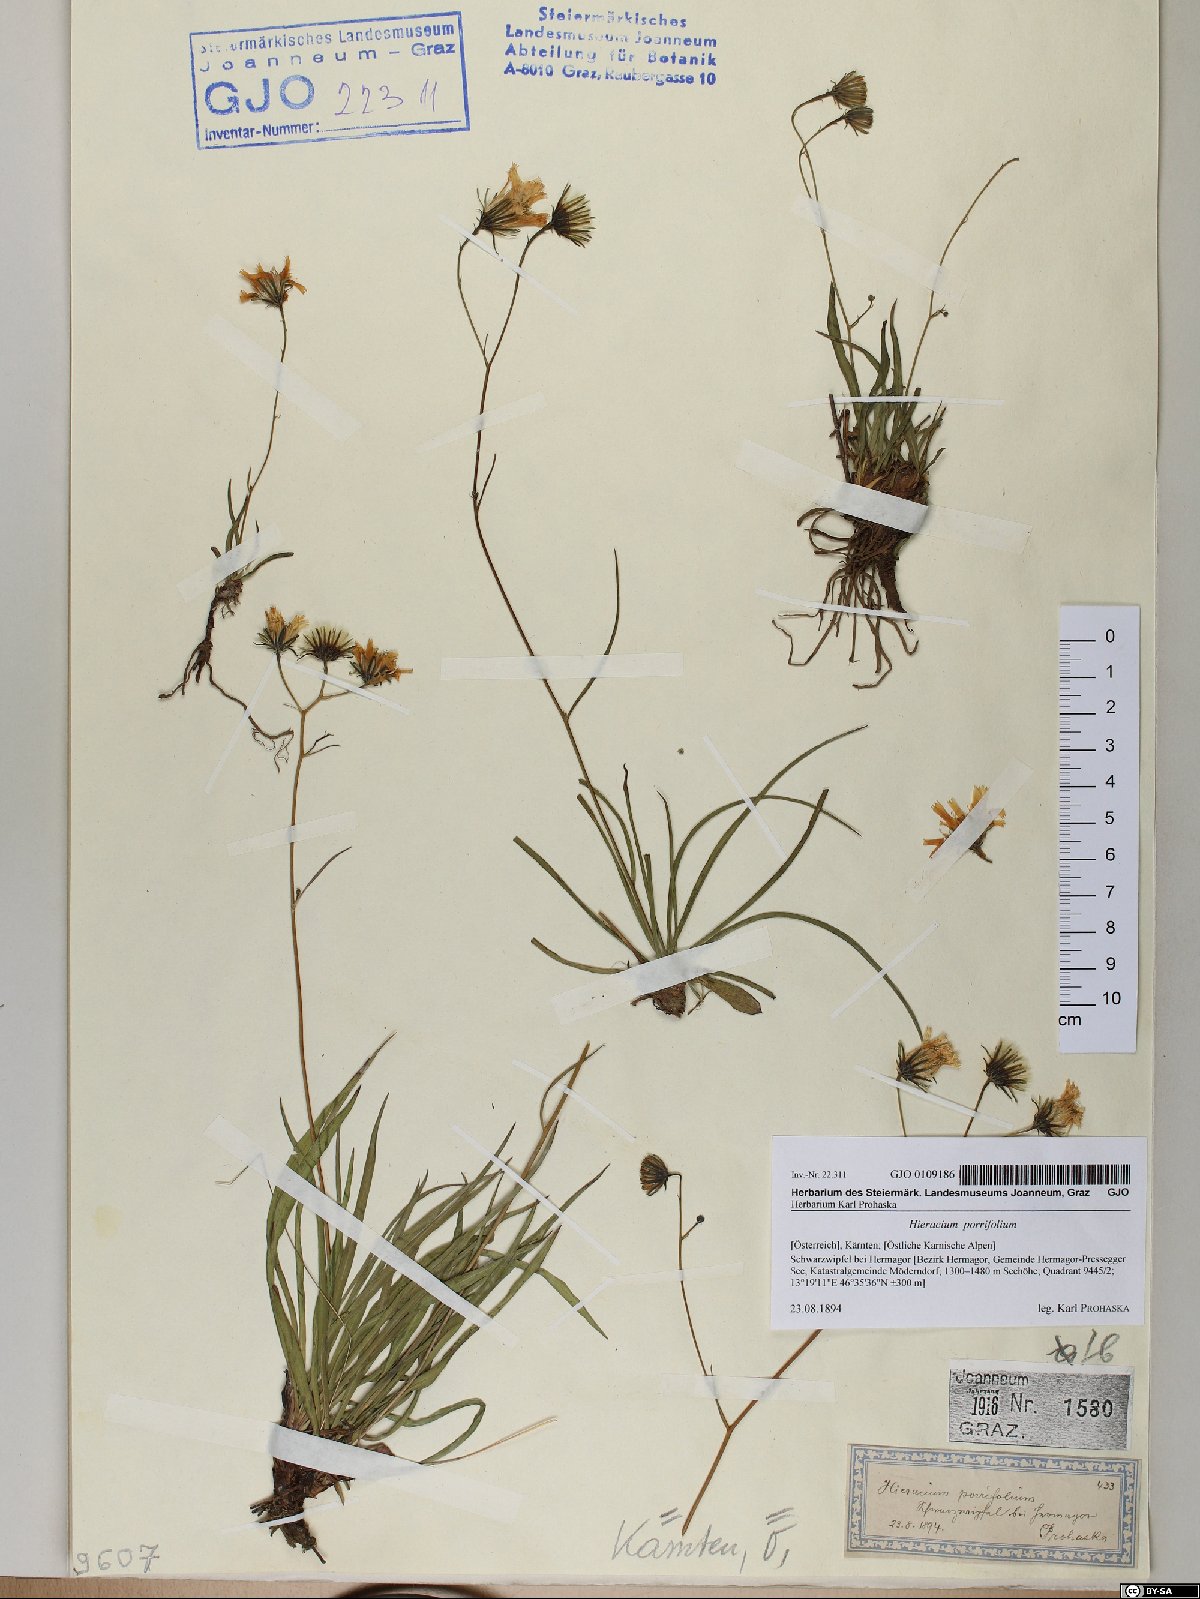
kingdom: Plantae
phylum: Tracheophyta
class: Magnoliopsida
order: Asterales
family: Asteraceae
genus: Hieracium
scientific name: Hieracium porrifolium
